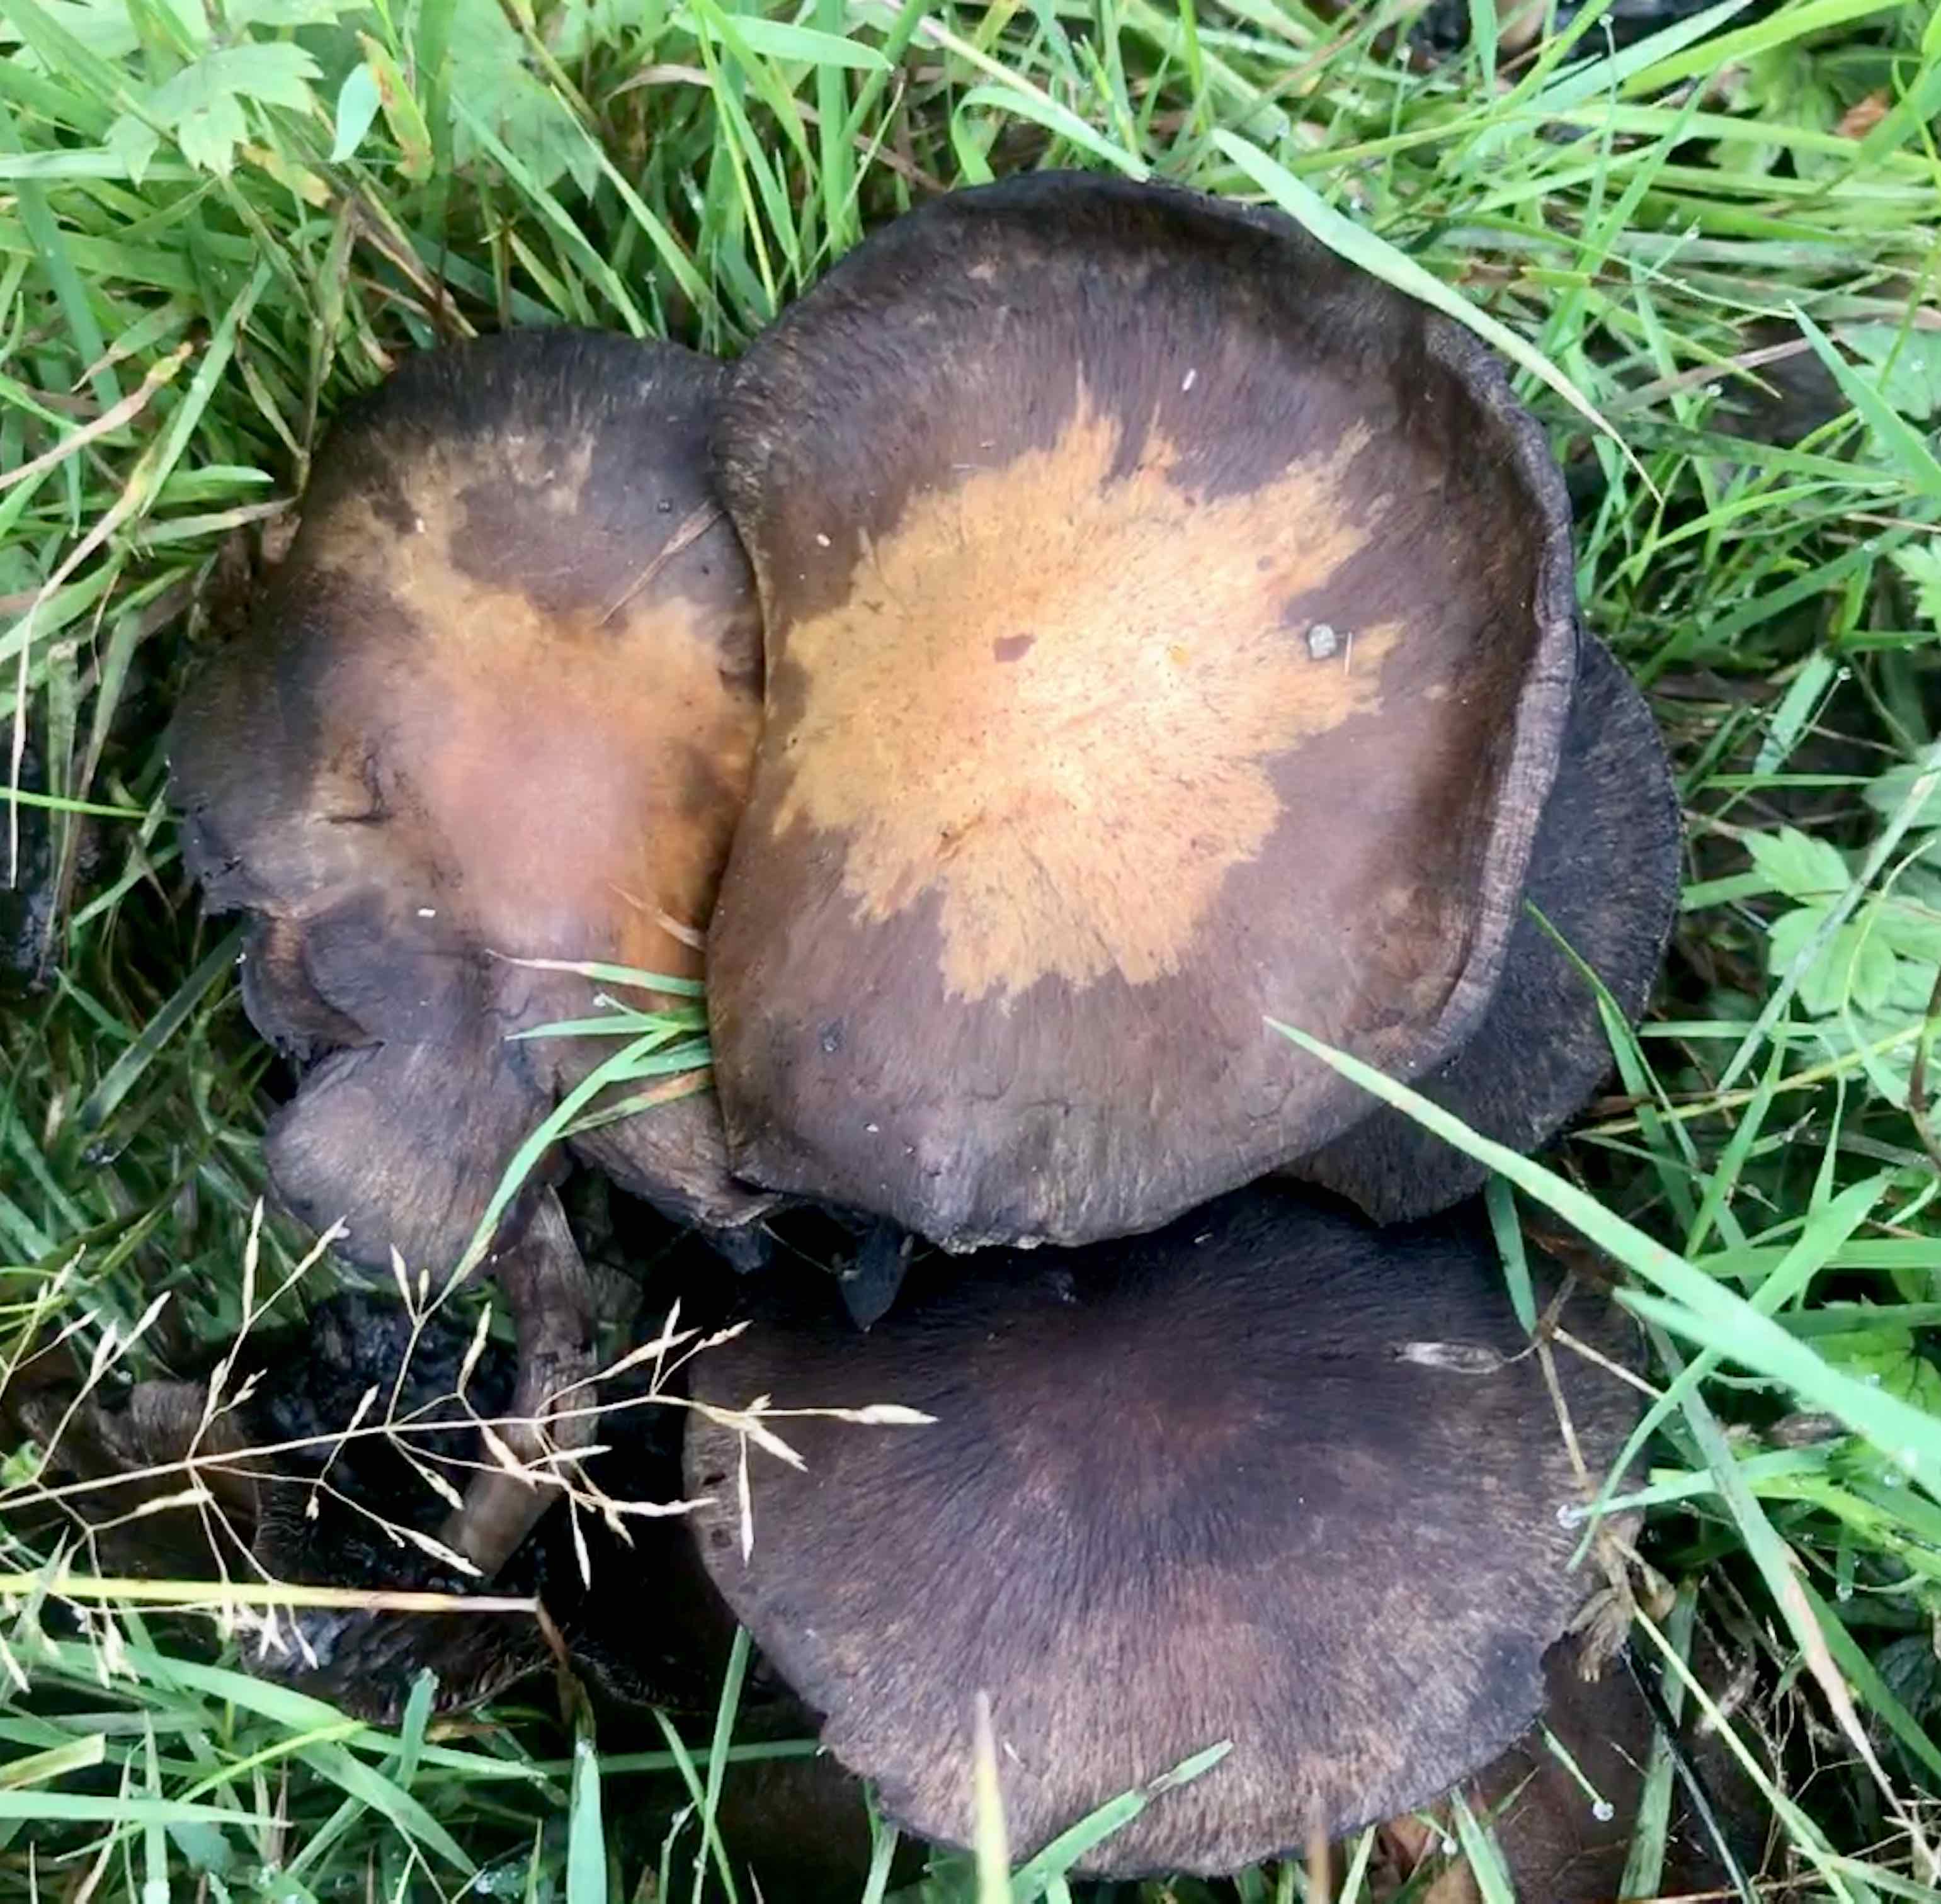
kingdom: Fungi
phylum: Basidiomycota
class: Agaricomycetes
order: Agaricales
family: Psathyrellaceae
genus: Lacrymaria
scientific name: Lacrymaria lacrymabunda
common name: grædende mørkhat
